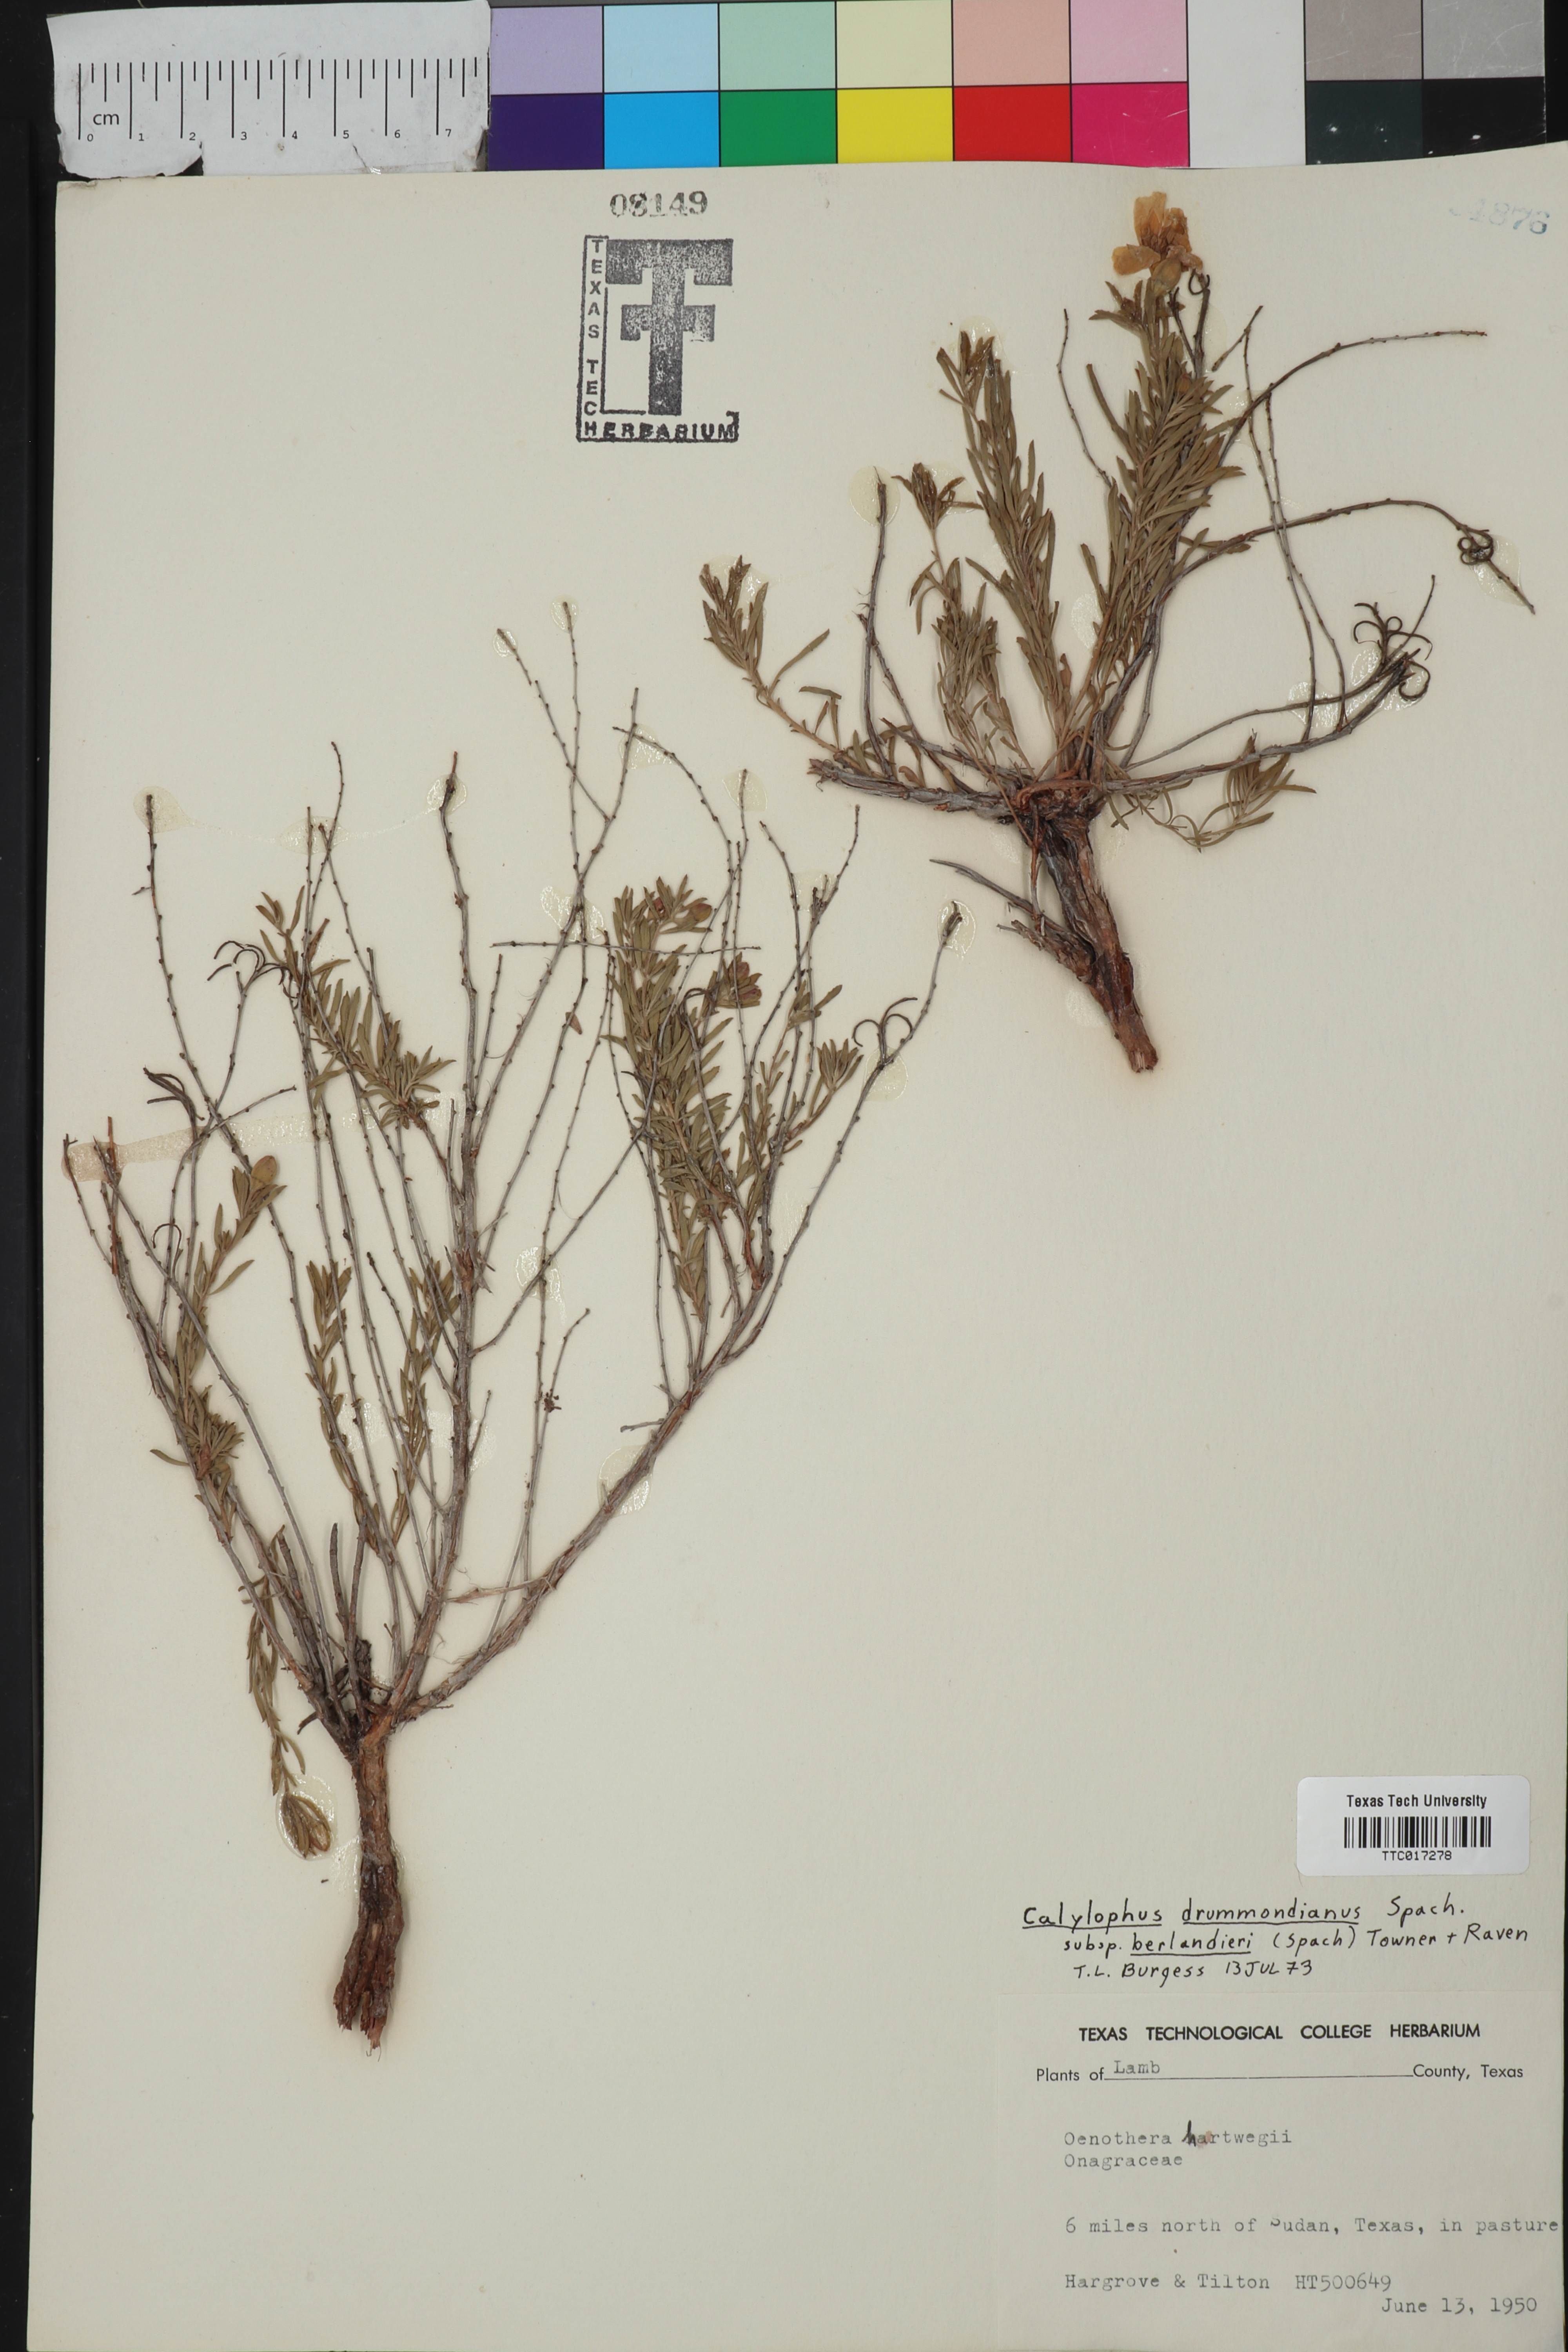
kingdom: Plantae
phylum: Tracheophyta
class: Magnoliopsida
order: Myrtales
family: Onagraceae
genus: Oenothera
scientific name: Oenothera capillifolia
